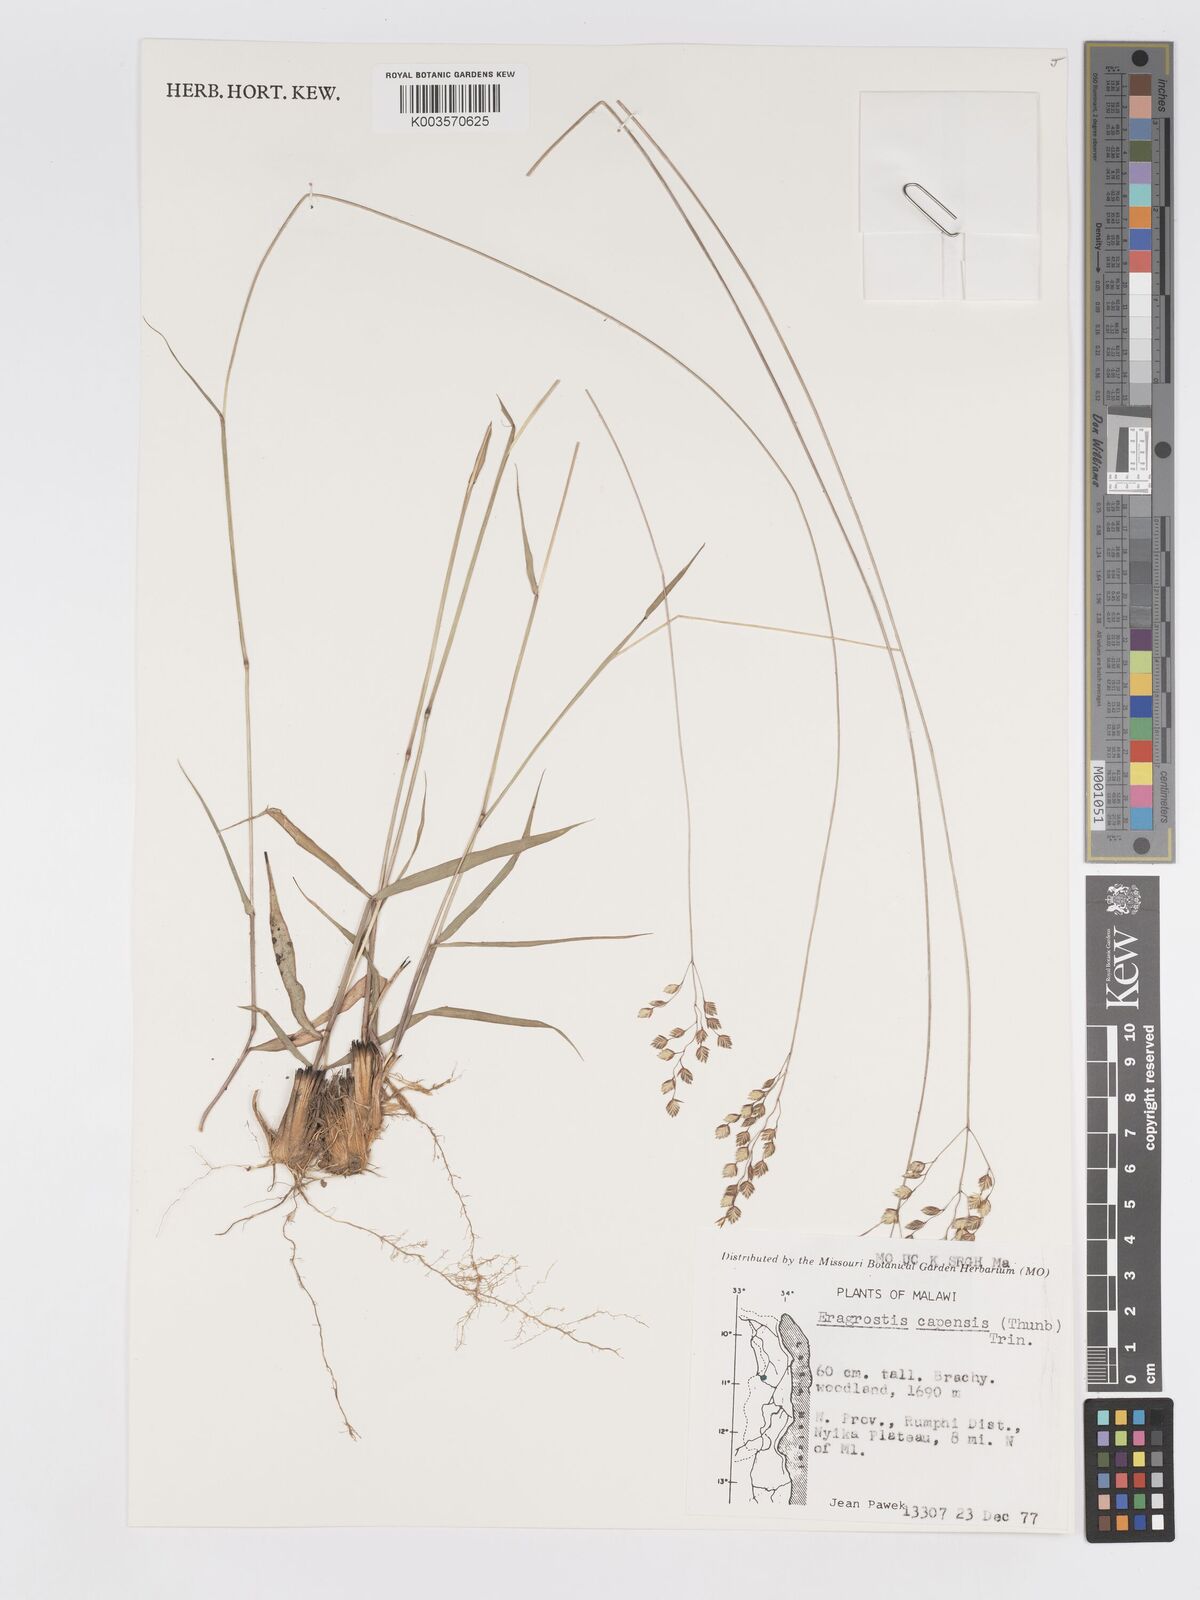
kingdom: Plantae
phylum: Tracheophyta
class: Liliopsida
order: Poales
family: Poaceae
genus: Eragrostis
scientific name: Eragrostis capensis
